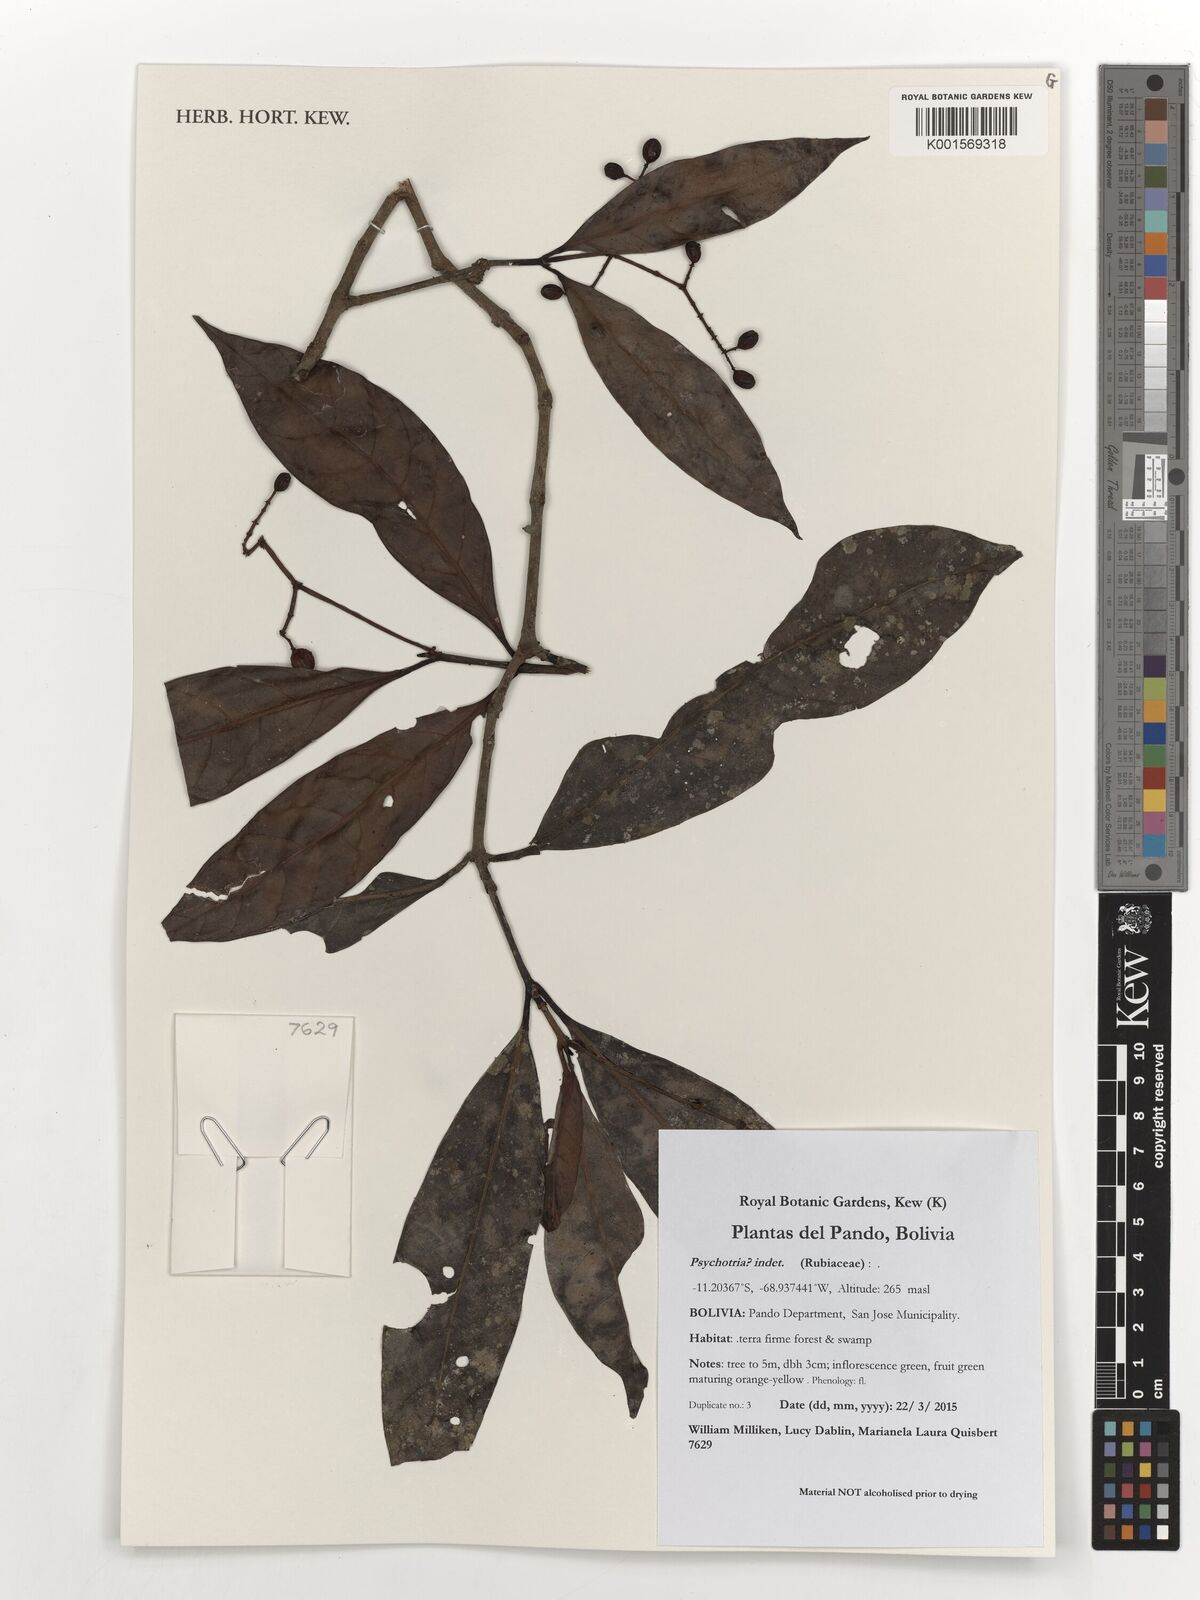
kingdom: Plantae
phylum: Tracheophyta
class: Magnoliopsida
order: Gentianales
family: Rubiaceae
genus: Psychotria
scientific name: Psychotria
